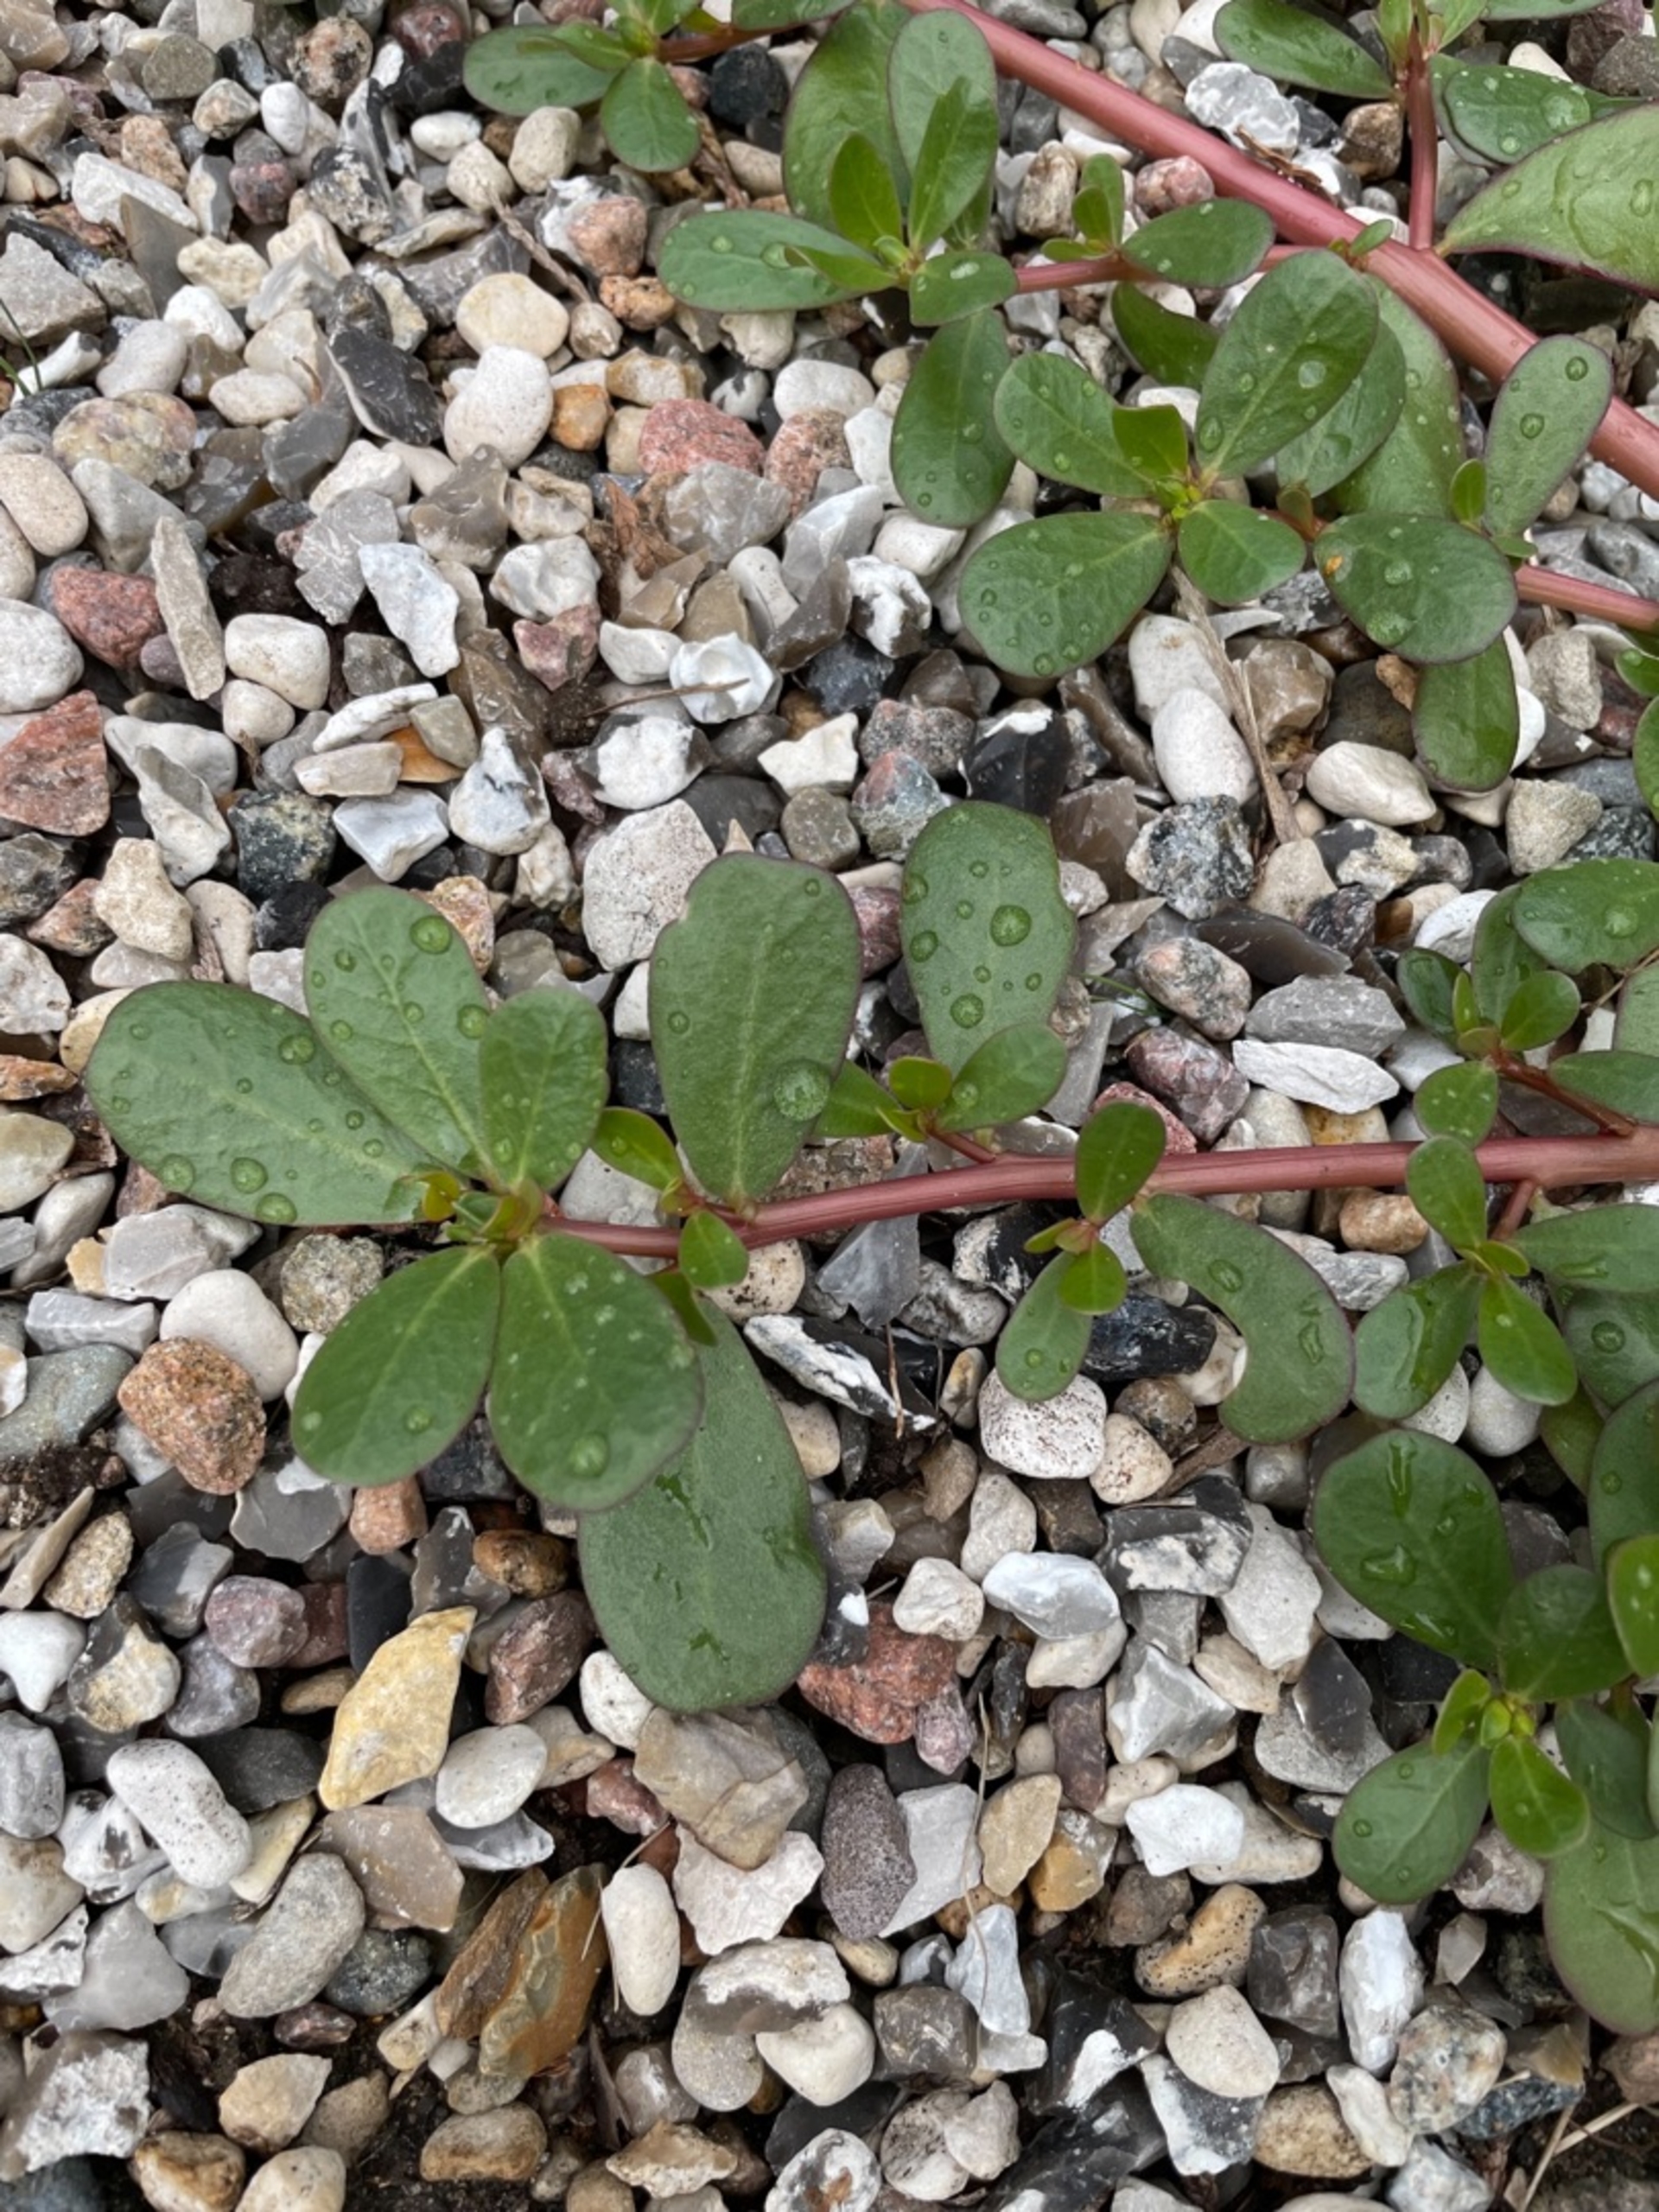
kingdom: Plantae
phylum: Tracheophyta
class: Magnoliopsida
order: Caryophyllales
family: Portulacaceae
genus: Portulaca
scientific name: Portulaca oleracea
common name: Portulak
